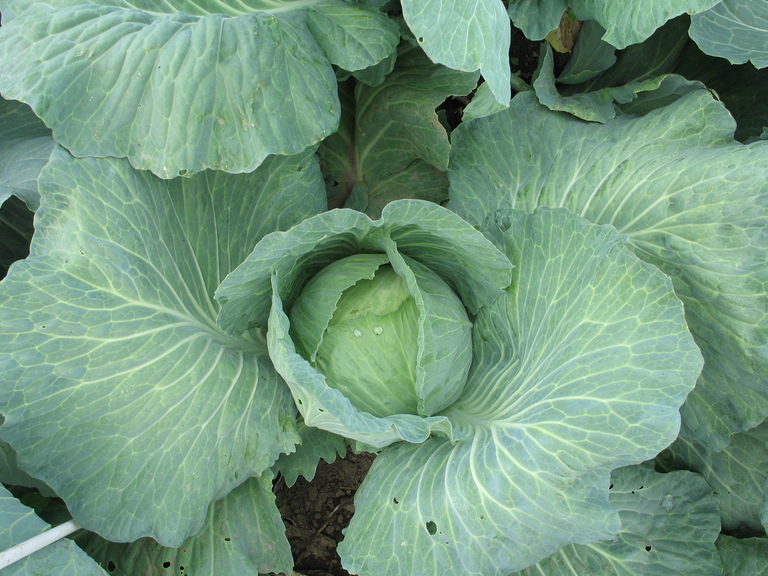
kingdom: Plantae
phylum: Tracheophyta
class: Magnoliopsida
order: Brassicales
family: Brassicaceae
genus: Brassica
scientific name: Brassica oleracea
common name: Cabbage
